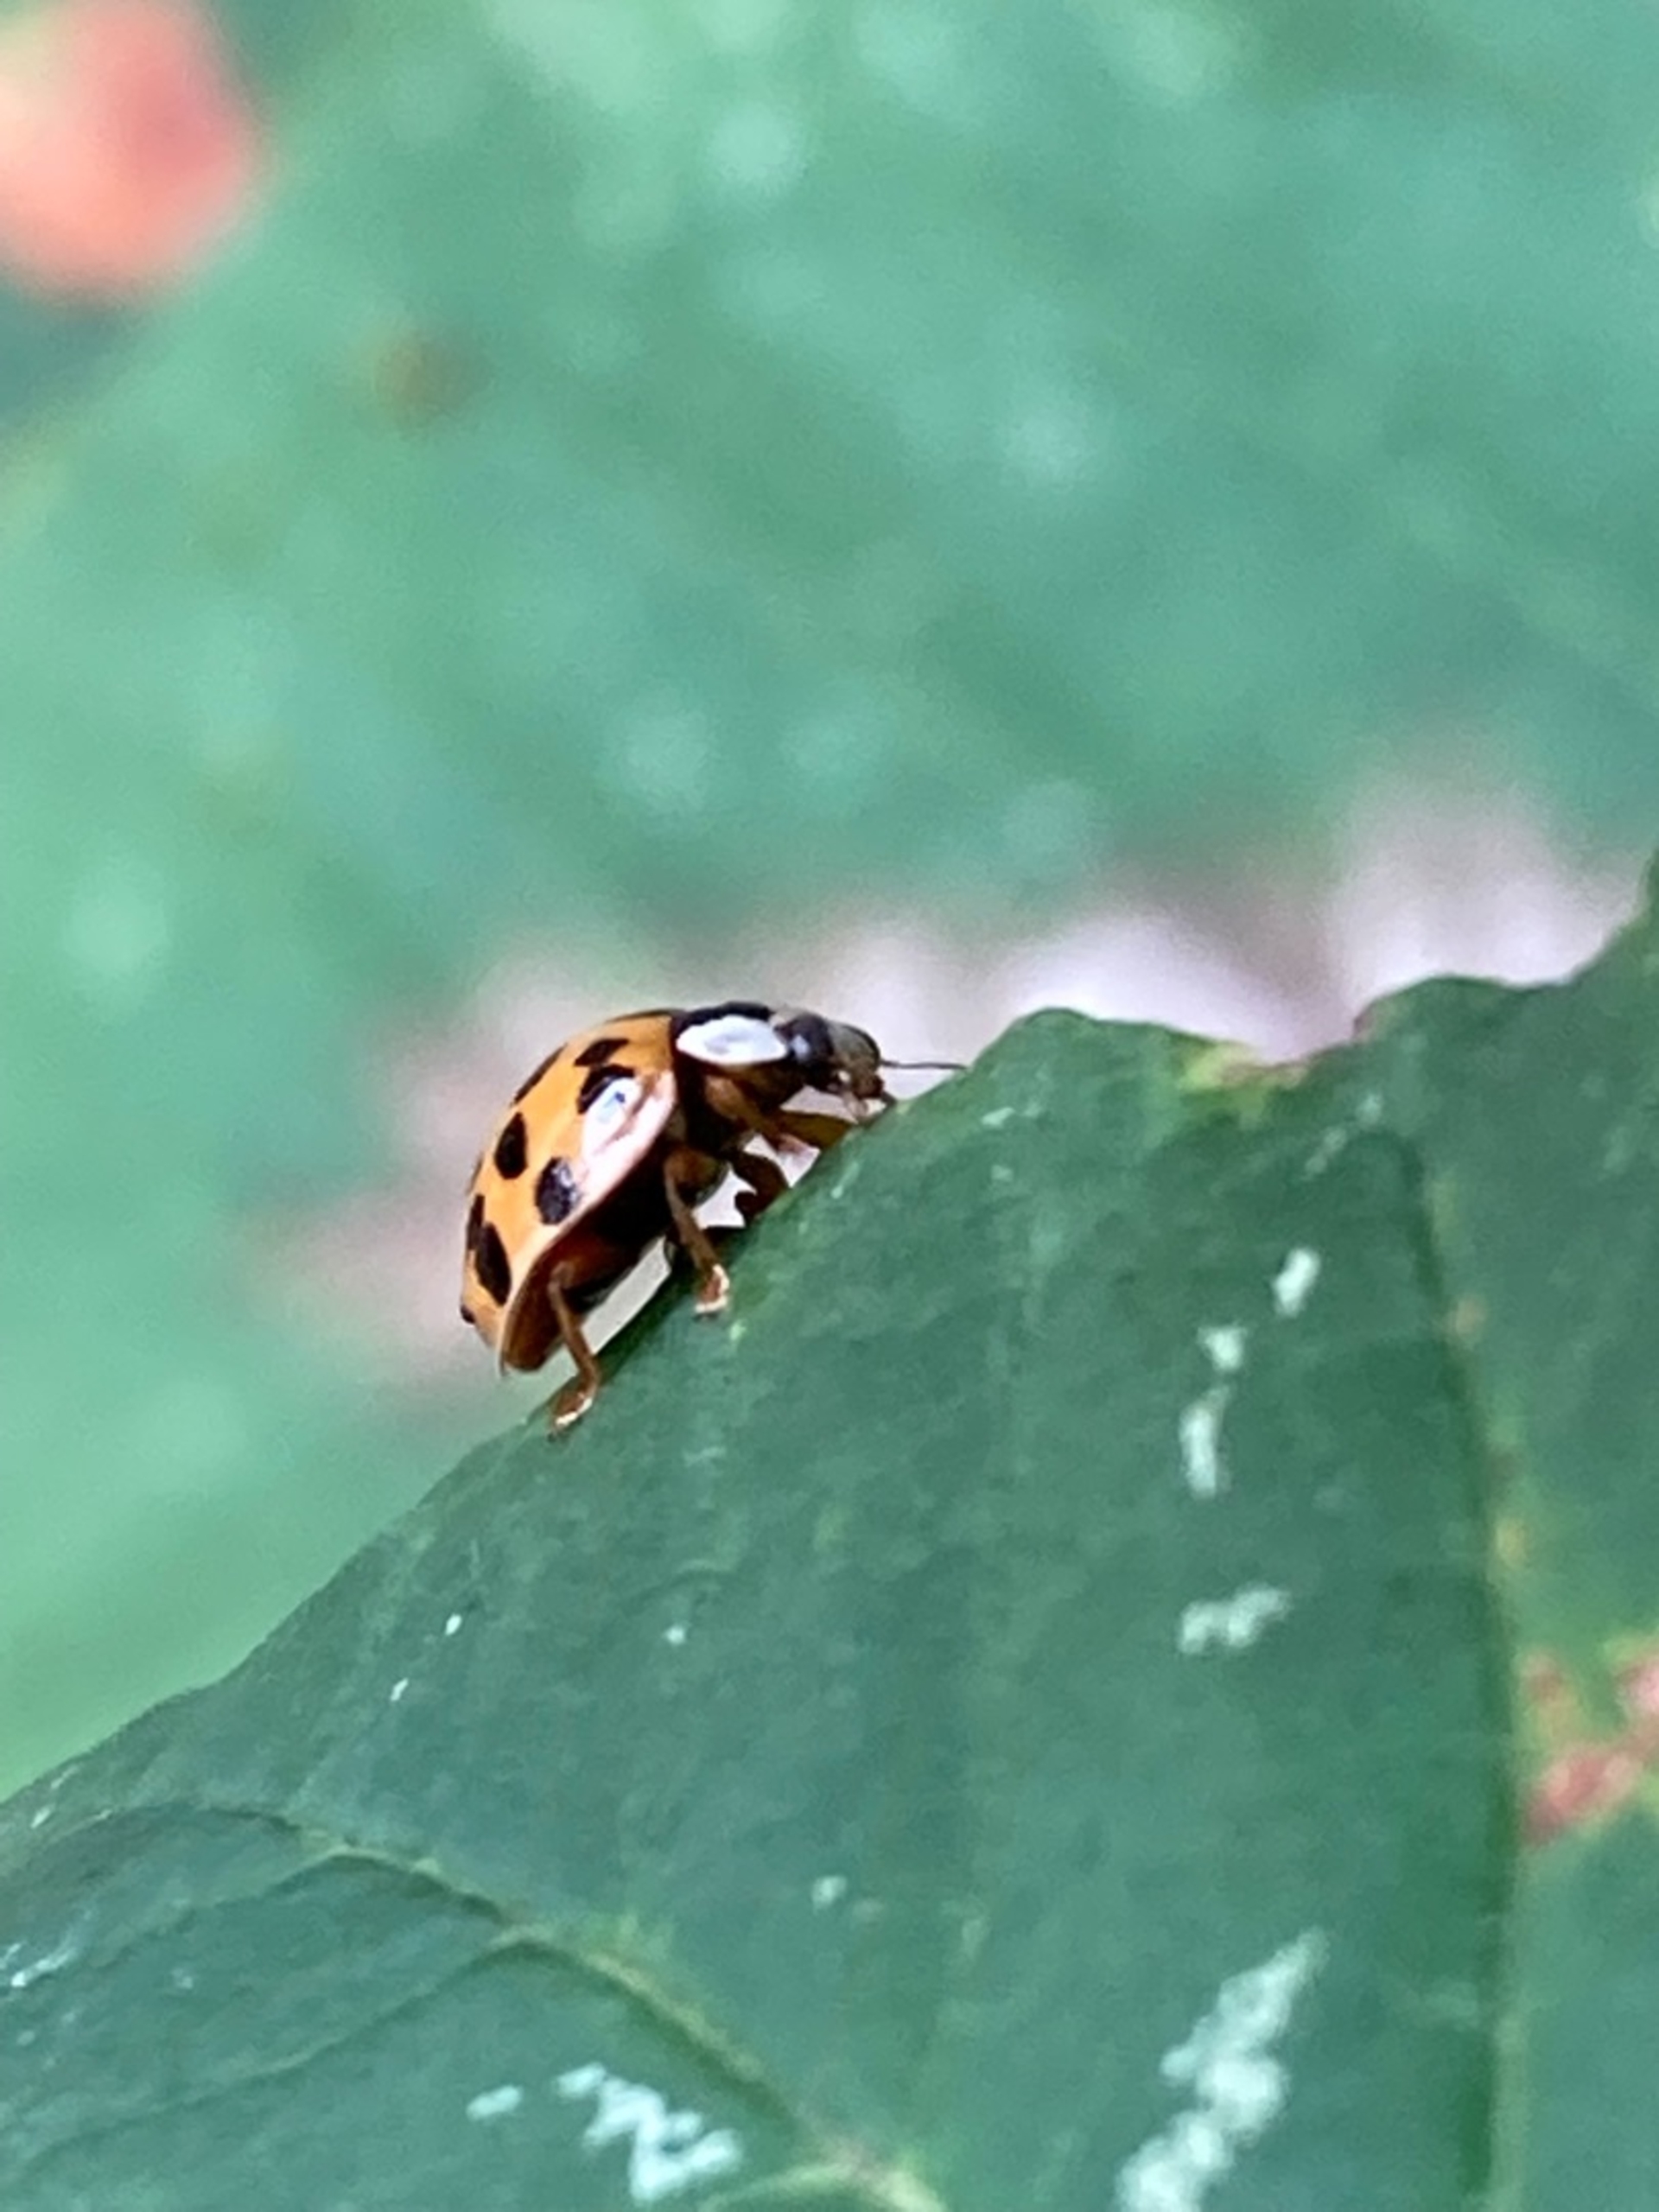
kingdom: Animalia
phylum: Arthropoda
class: Insecta
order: Coleoptera
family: Coccinellidae
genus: Harmonia
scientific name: Harmonia axyridis
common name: Harlekinmariehøne
